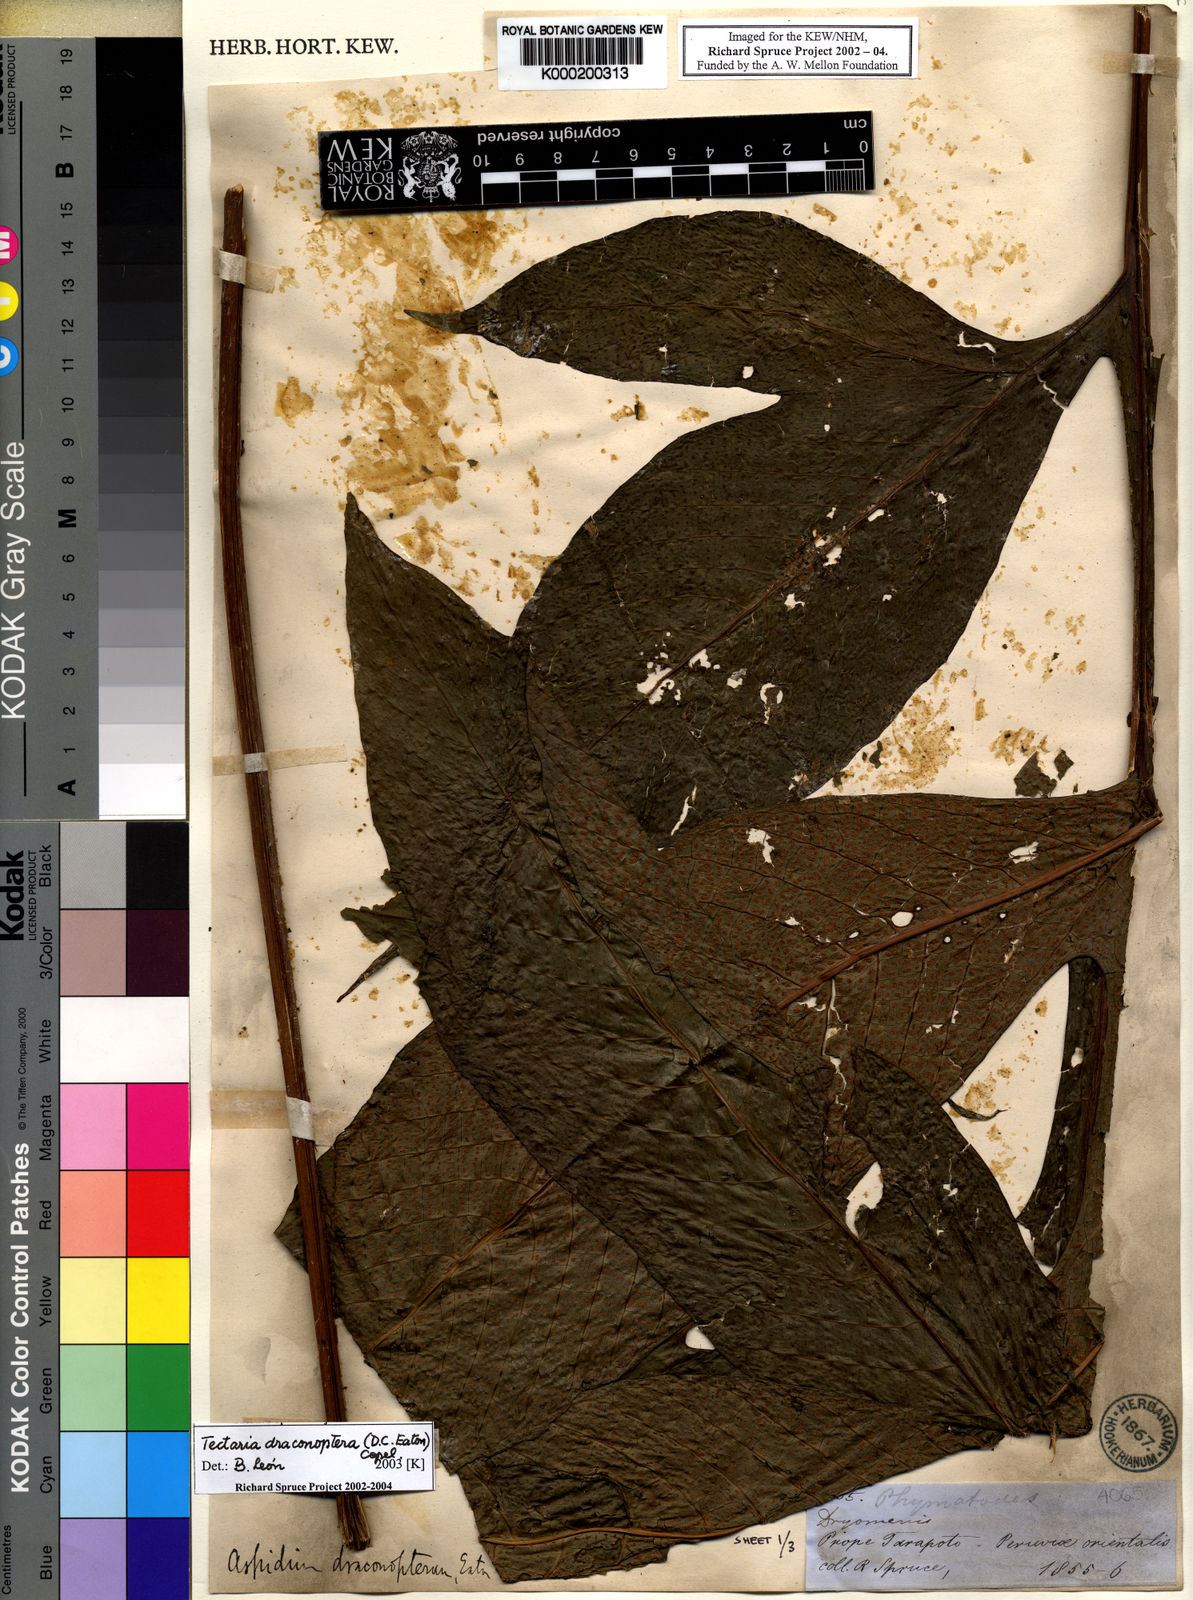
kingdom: Plantae
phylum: Tracheophyta
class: Polypodiopsida
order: Polypodiales
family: Tectariaceae
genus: Draconopteris
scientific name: Draconopteris draconoptera
